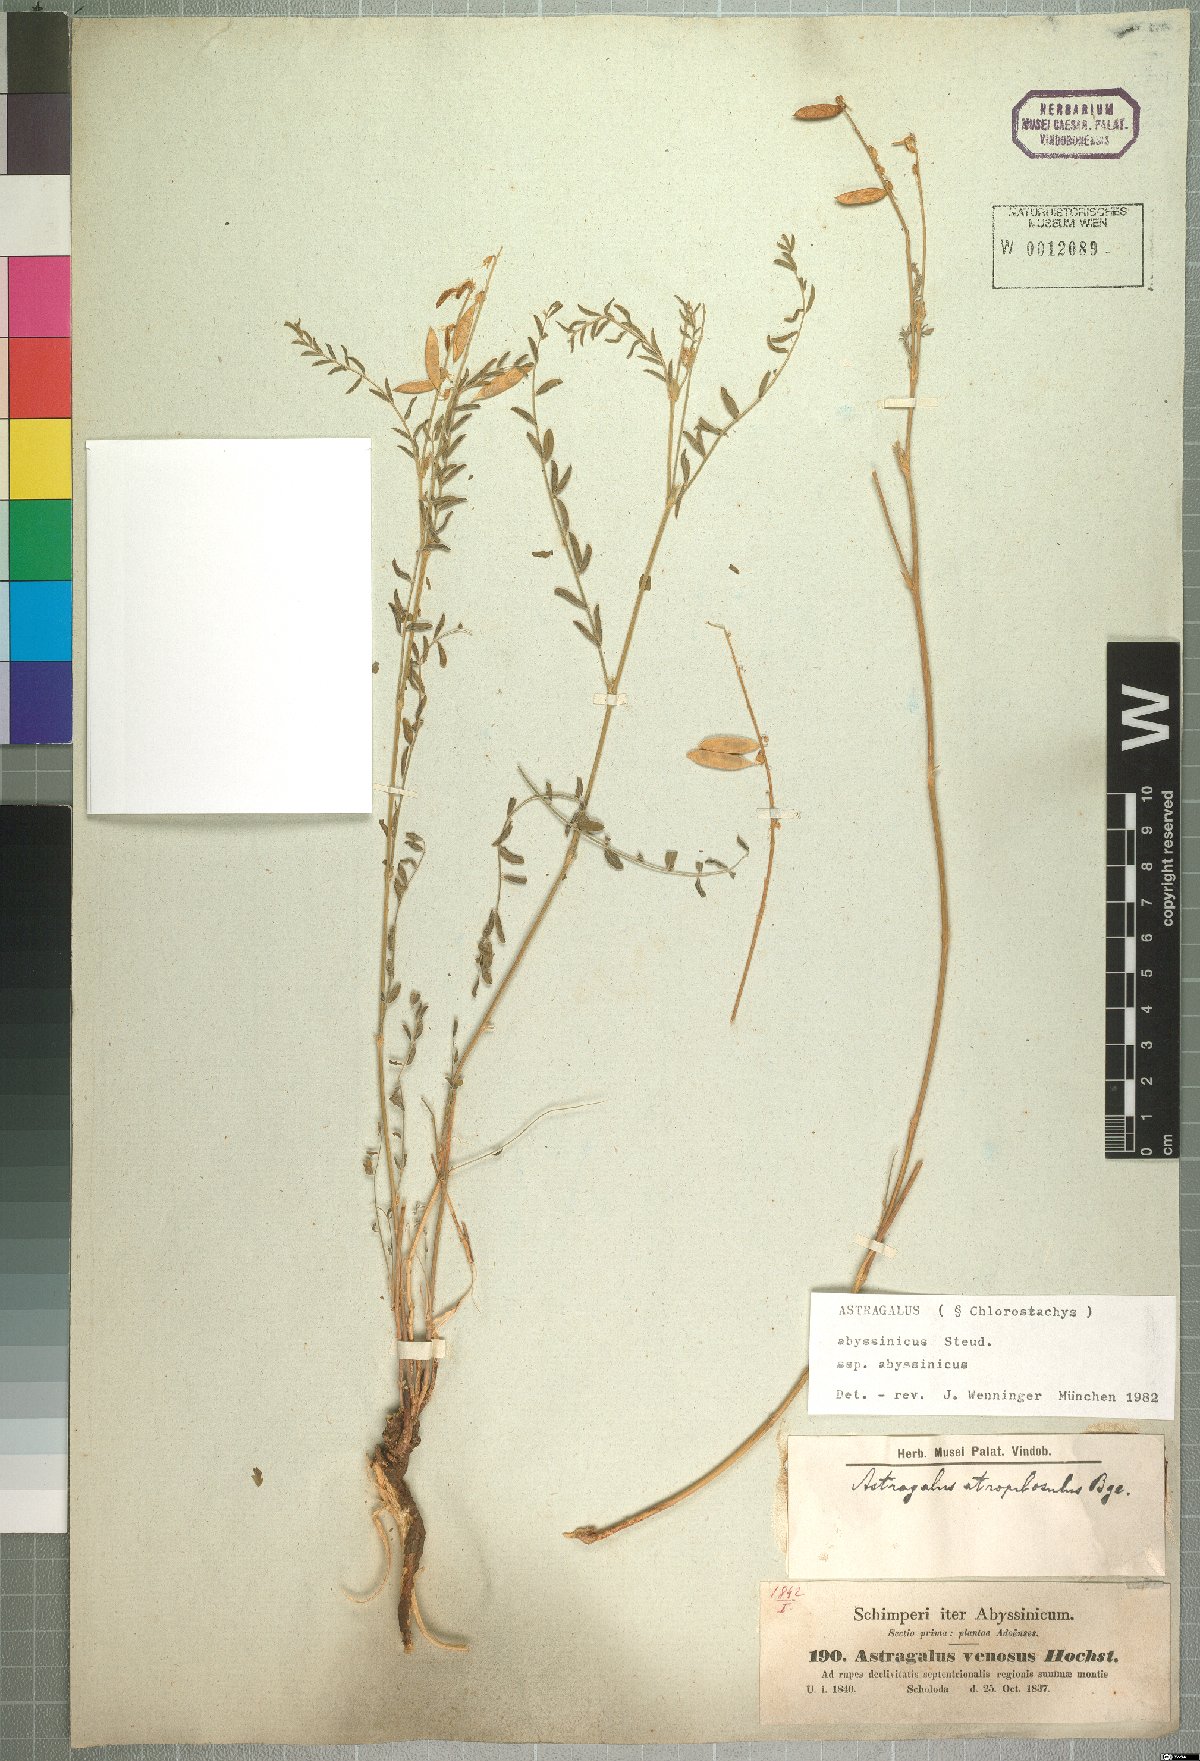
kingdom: Plantae
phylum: Tracheophyta
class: Magnoliopsida
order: Fabales
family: Fabaceae
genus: Astragalus
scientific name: Astragalus atropilosulus
